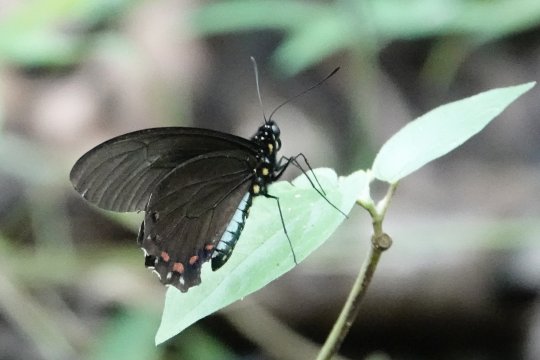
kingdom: Animalia
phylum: Arthropoda
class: Insecta
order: Lepidoptera
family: Papilionidae
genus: Battus
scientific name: Battus lycidas
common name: Cramer's Swallowtail
